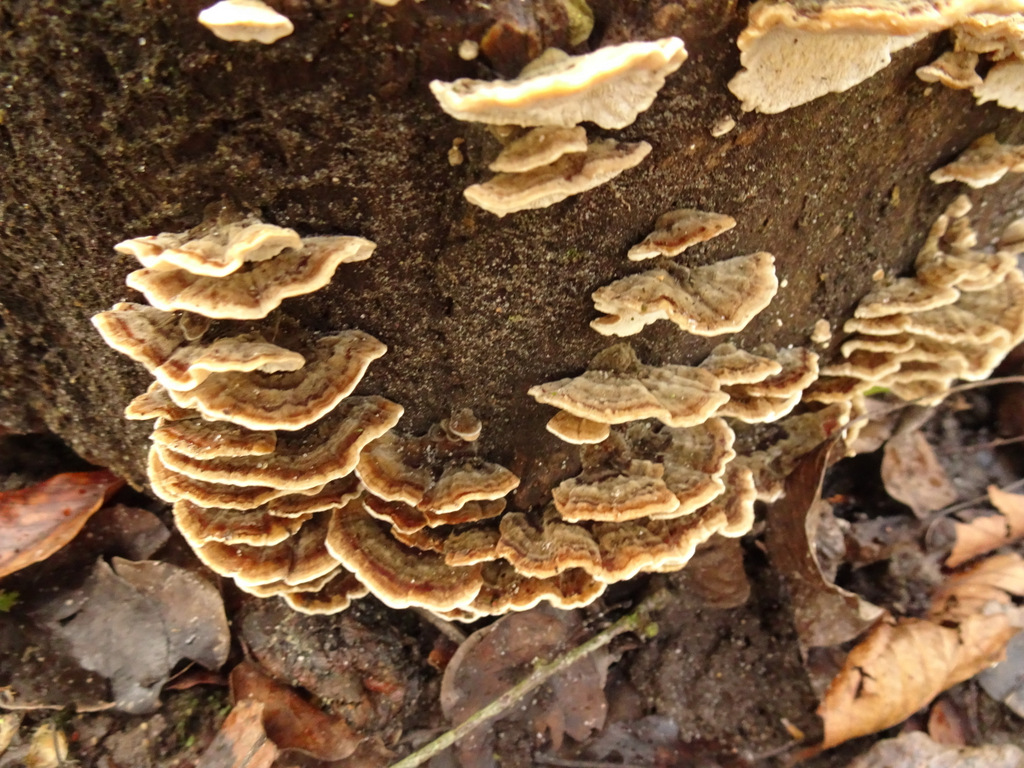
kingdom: Fungi
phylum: Basidiomycota
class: Agaricomycetes
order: Polyporales
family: Polyporaceae
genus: Trametes
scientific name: Trametes versicolor
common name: broget læderporesvamp
